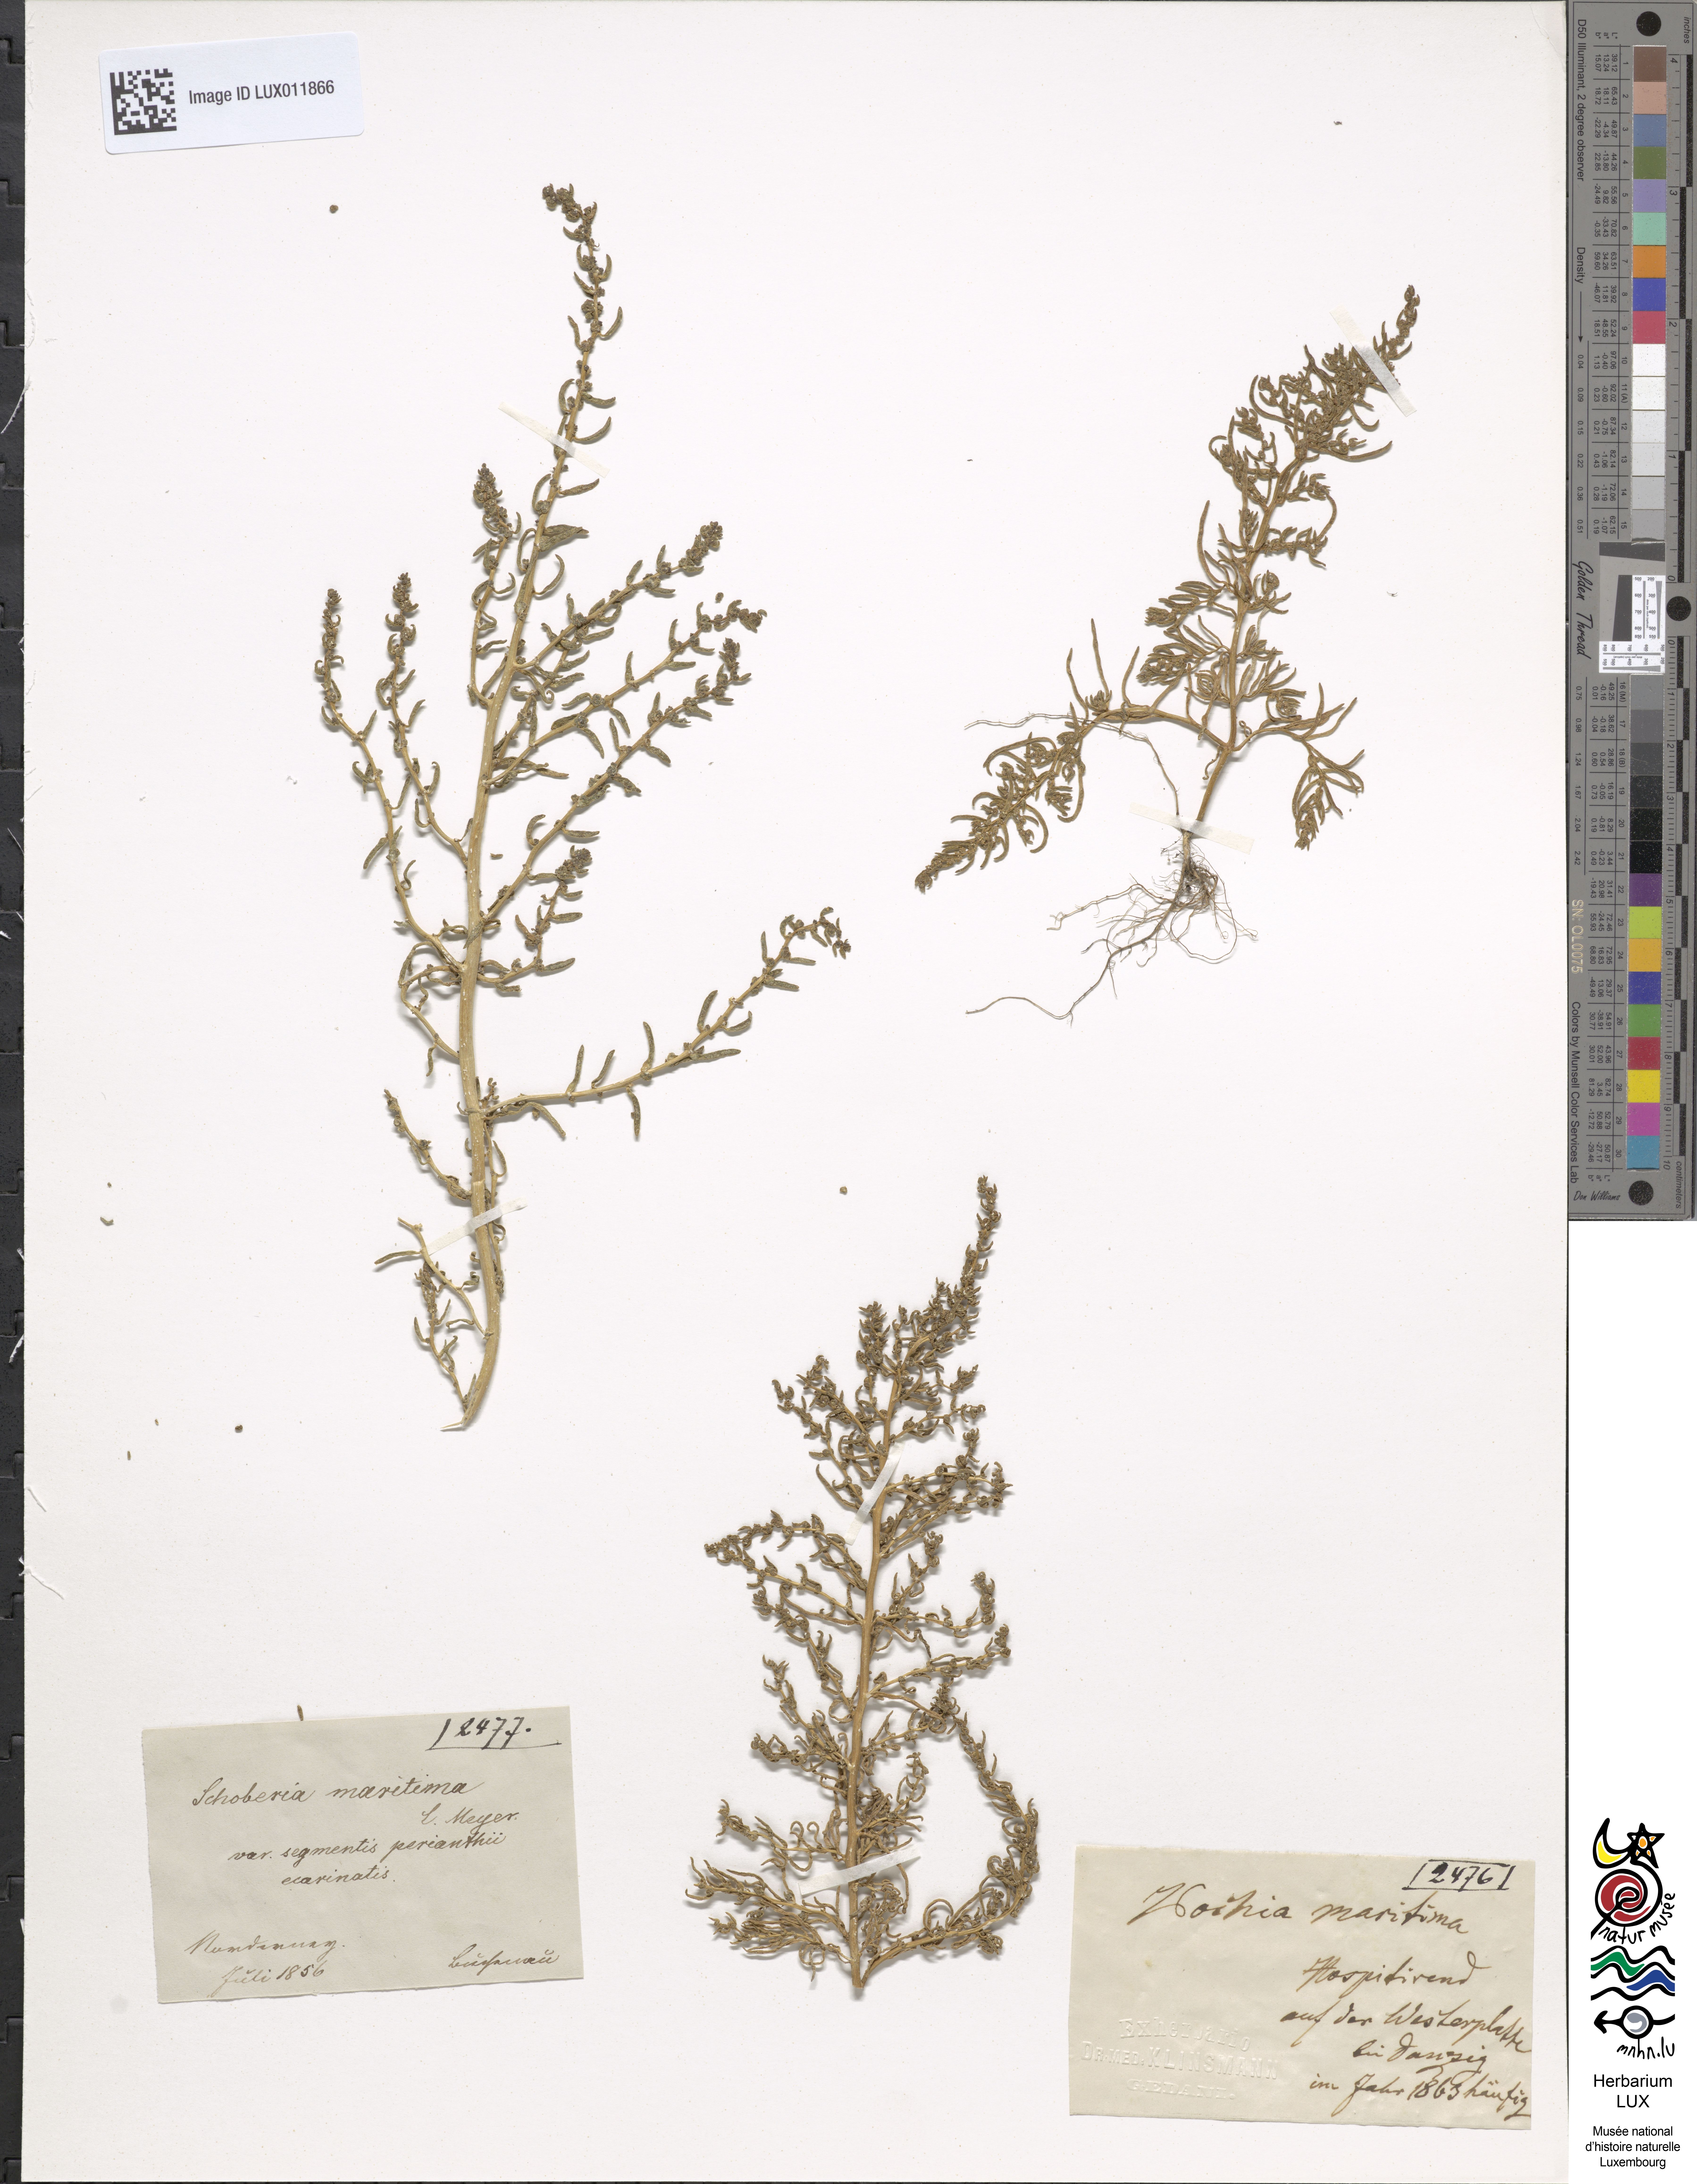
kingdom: Plantae
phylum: Tracheophyta
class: Magnoliopsida
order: Caryophyllales
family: Amaranthaceae
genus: Suaeda
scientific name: Suaeda maritima
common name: Annual sea-blite
